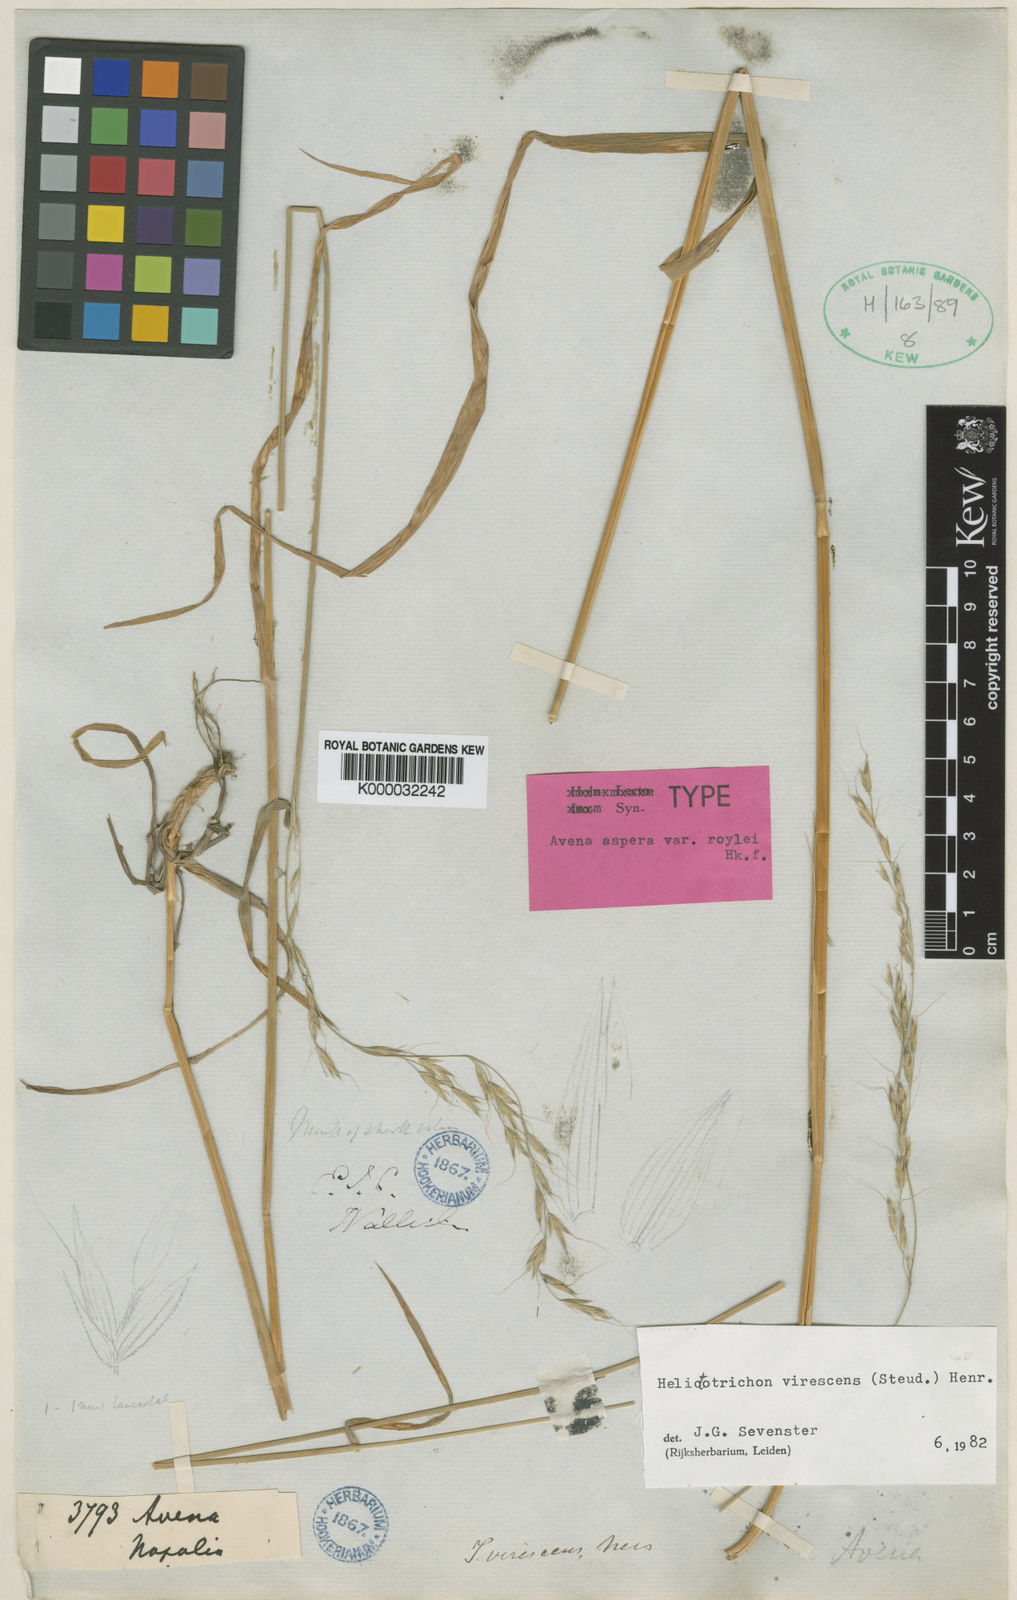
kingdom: Plantae
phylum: Tracheophyta
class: Liliopsida
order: Poales
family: Poaceae
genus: Trisetopsis
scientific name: Trisetopsis virescens
